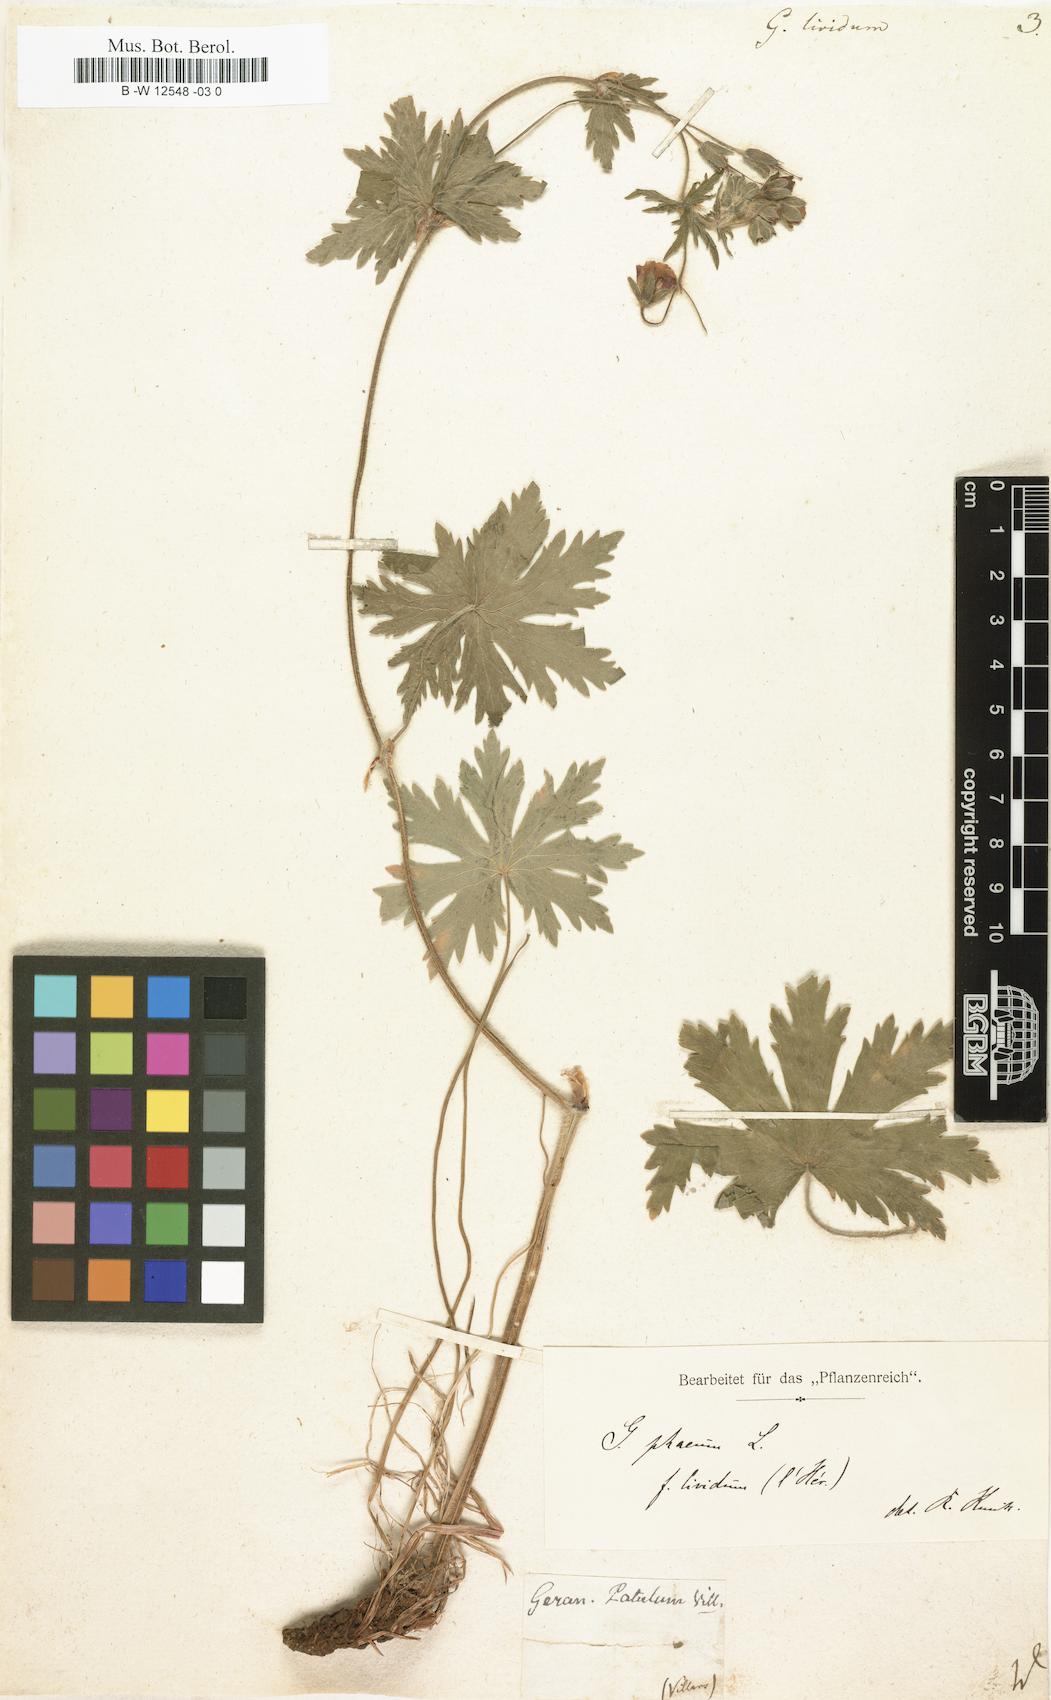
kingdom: Plantae
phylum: Tracheophyta
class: Magnoliopsida
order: Geraniales
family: Geraniaceae
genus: Geranium
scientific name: Geranium phaeum
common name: Dusky crane's-bill
